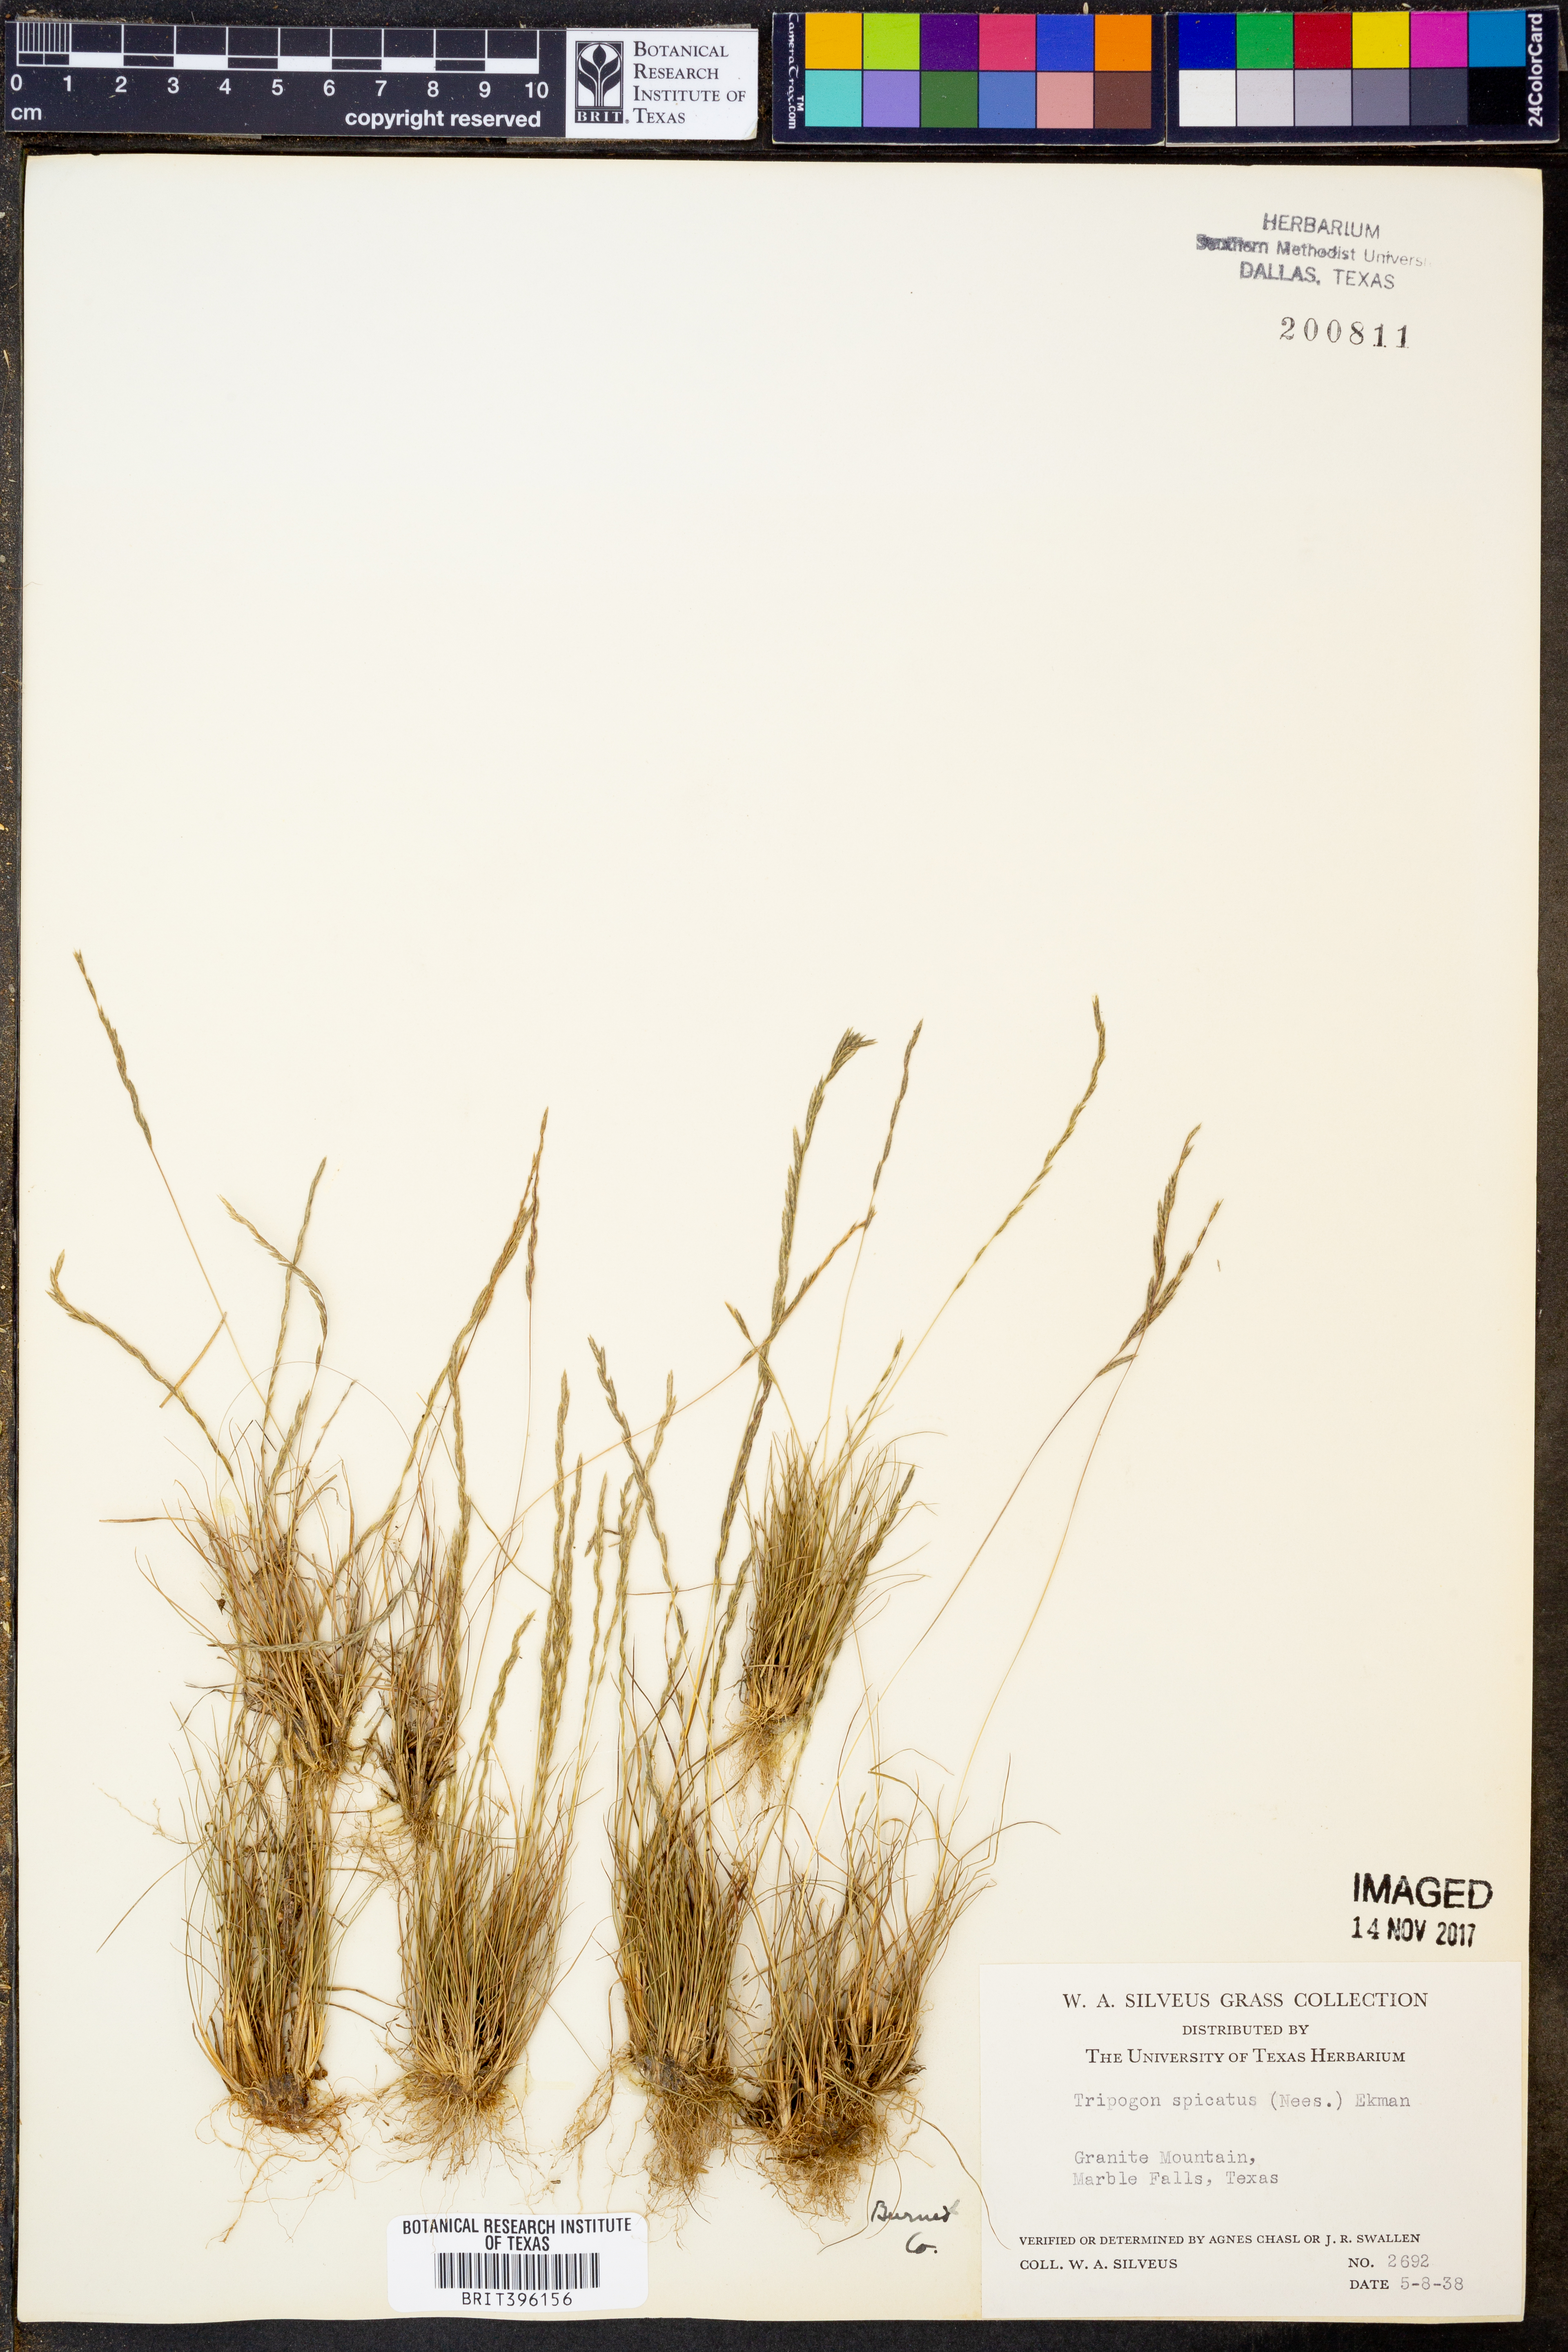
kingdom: Plantae
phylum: Tracheophyta
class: Liliopsida
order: Poales
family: Poaceae
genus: Tripogonella
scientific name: Tripogonella spicata
